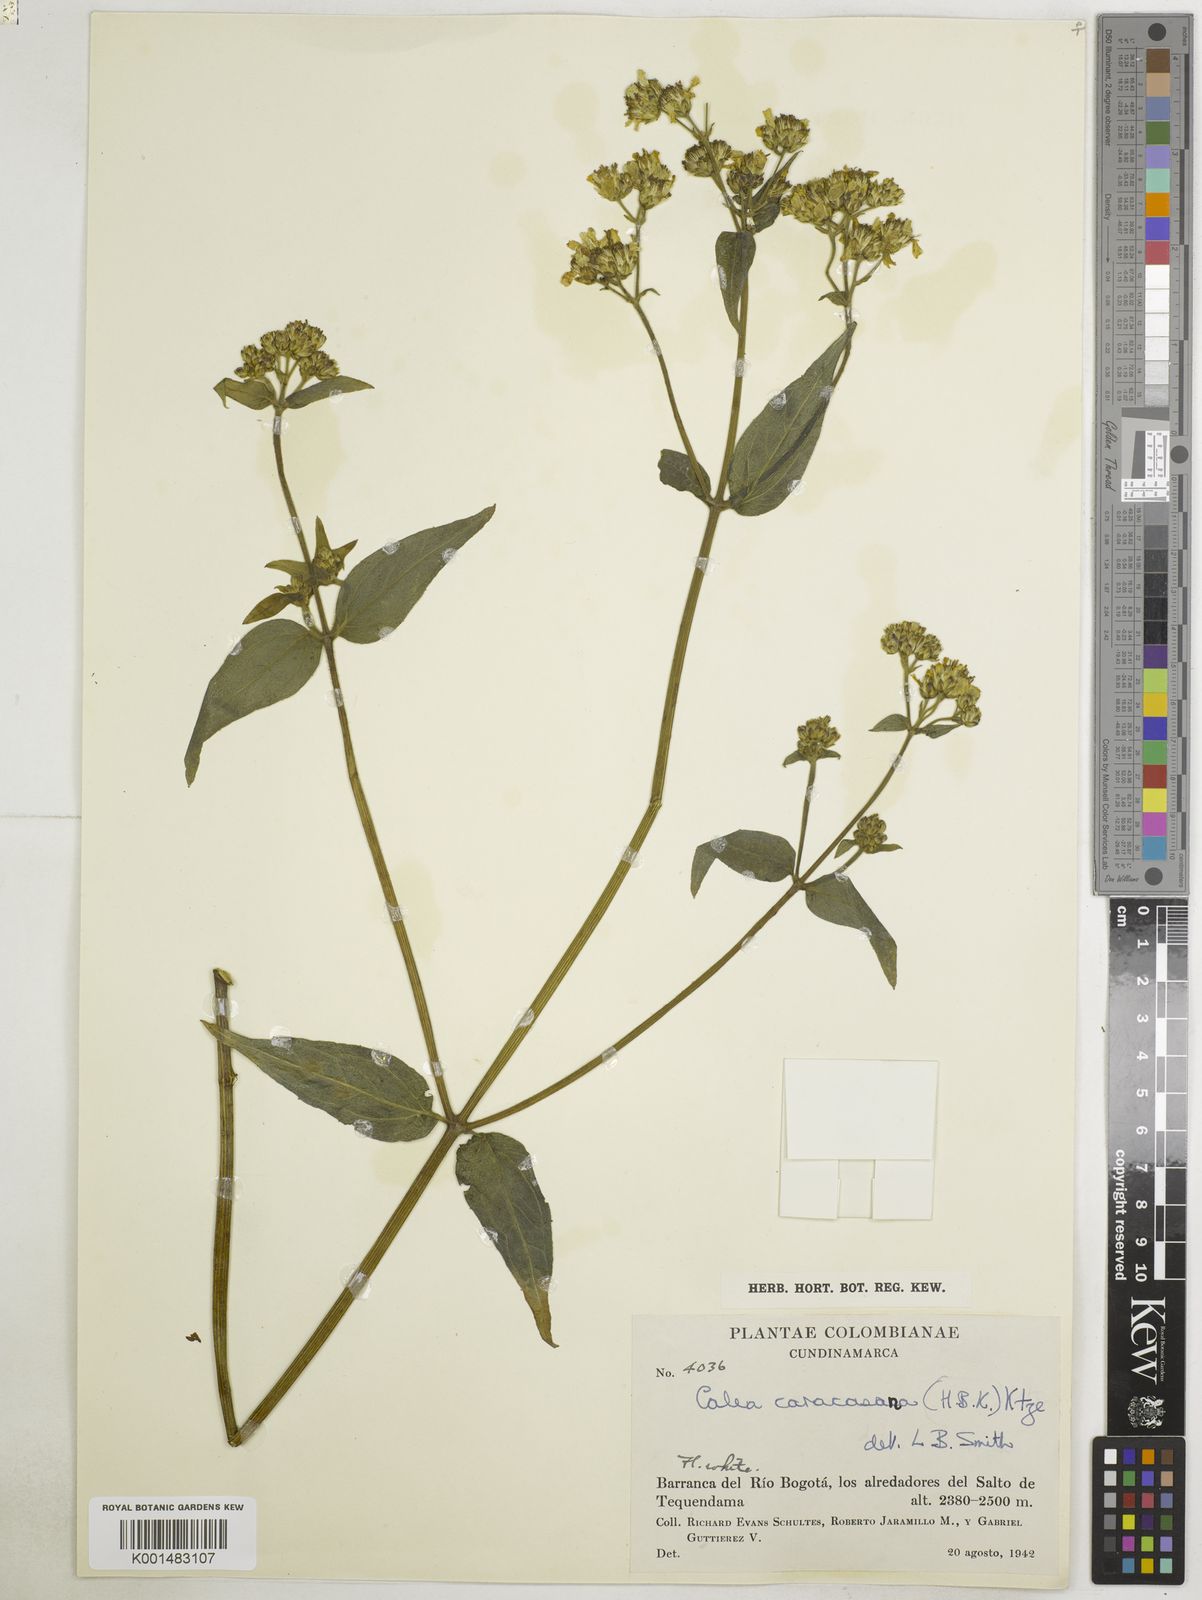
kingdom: Plantae
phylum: Tracheophyta
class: Magnoliopsida
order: Asterales
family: Asteraceae
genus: Alloispermum
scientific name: Alloispermum caracasanum
